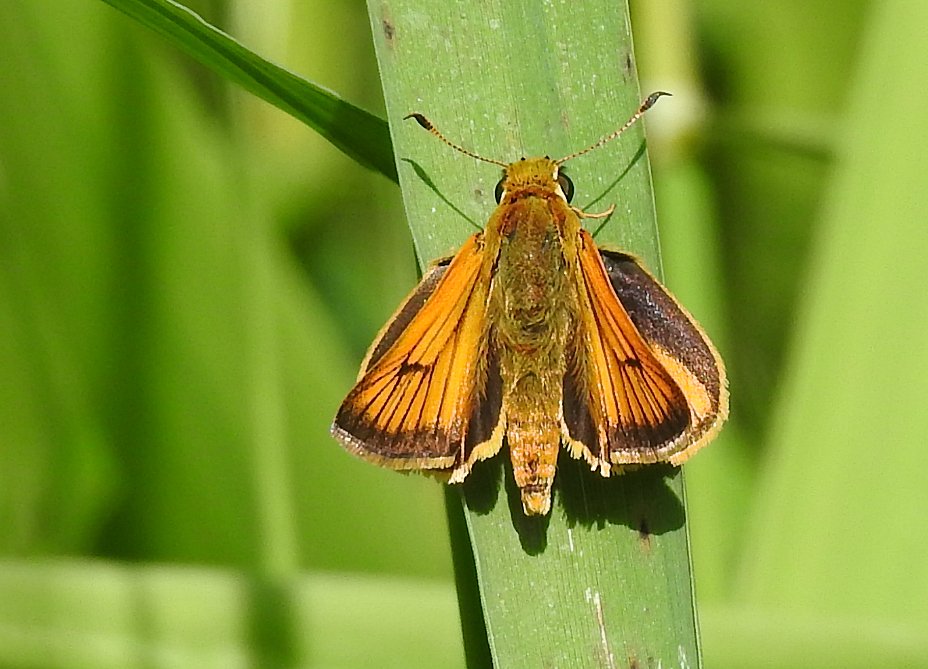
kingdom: Animalia
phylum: Arthropoda
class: Insecta
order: Lepidoptera
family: Hesperiidae
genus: Atrytone
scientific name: Atrytone delaware
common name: Delaware Skipper
